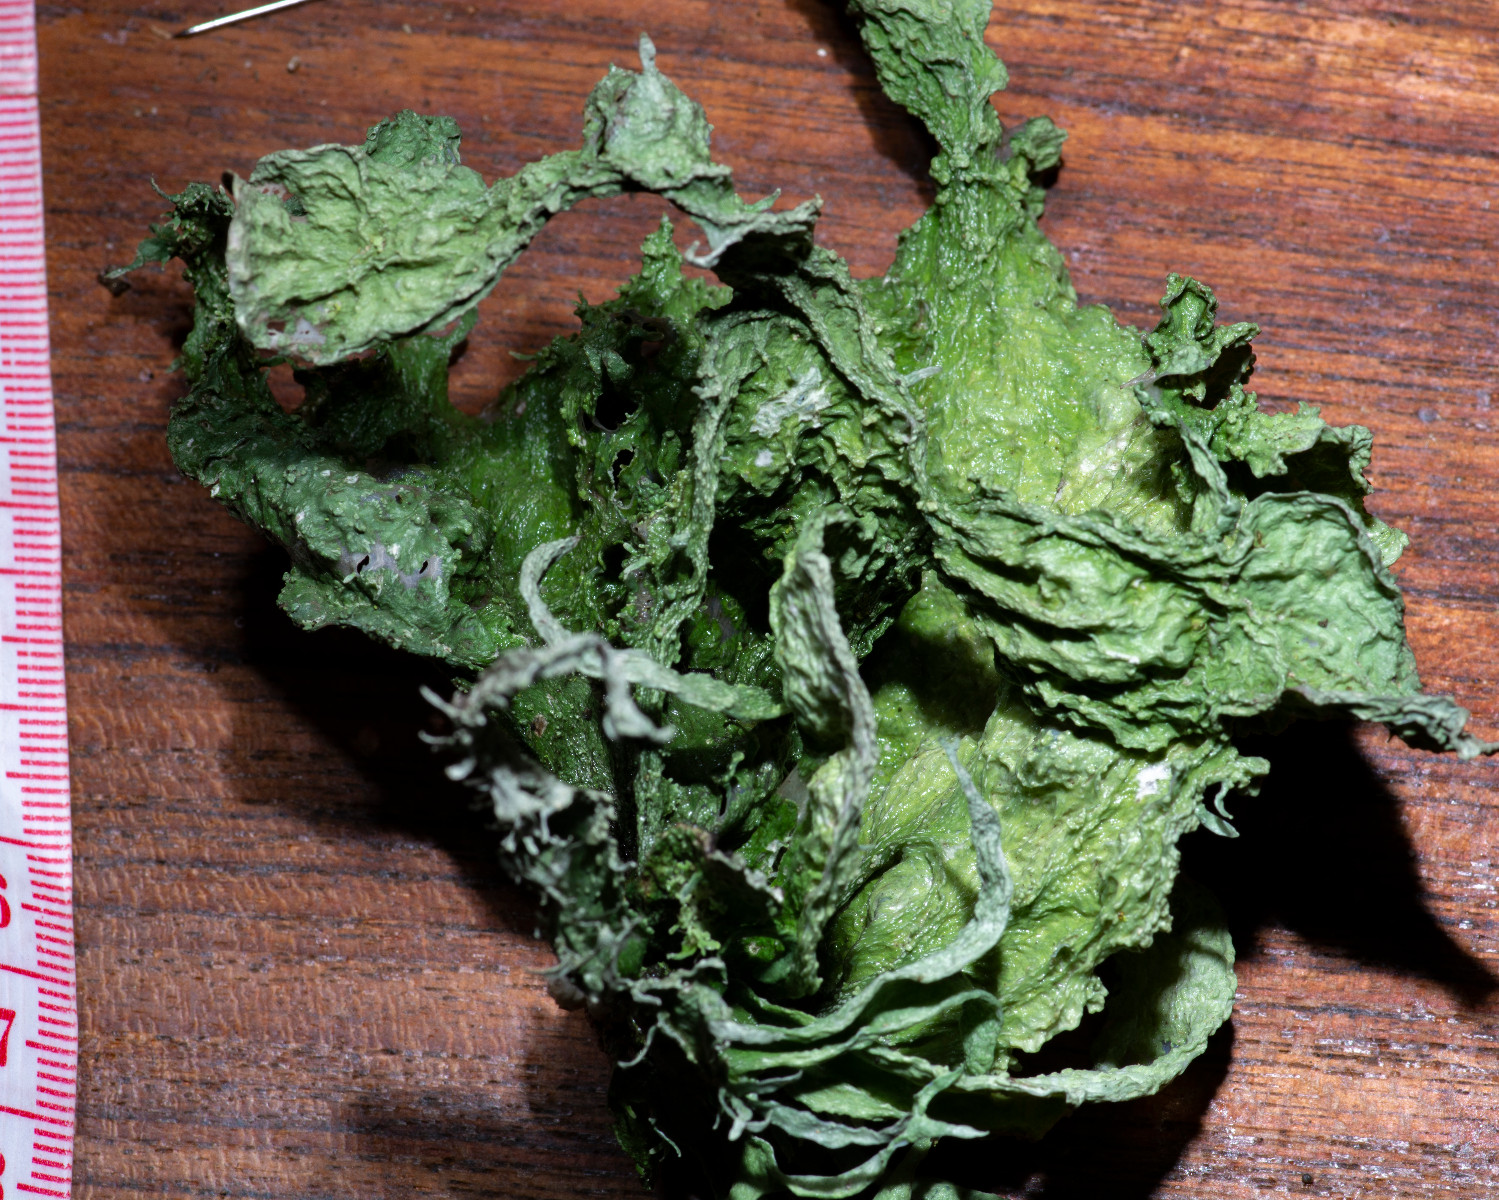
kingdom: Fungi
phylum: Ascomycota
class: Lecanoromycetes
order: Lecanorales
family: Ramalinaceae
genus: Ramalina
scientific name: Ramalina fraxinea
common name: stor grenlav
